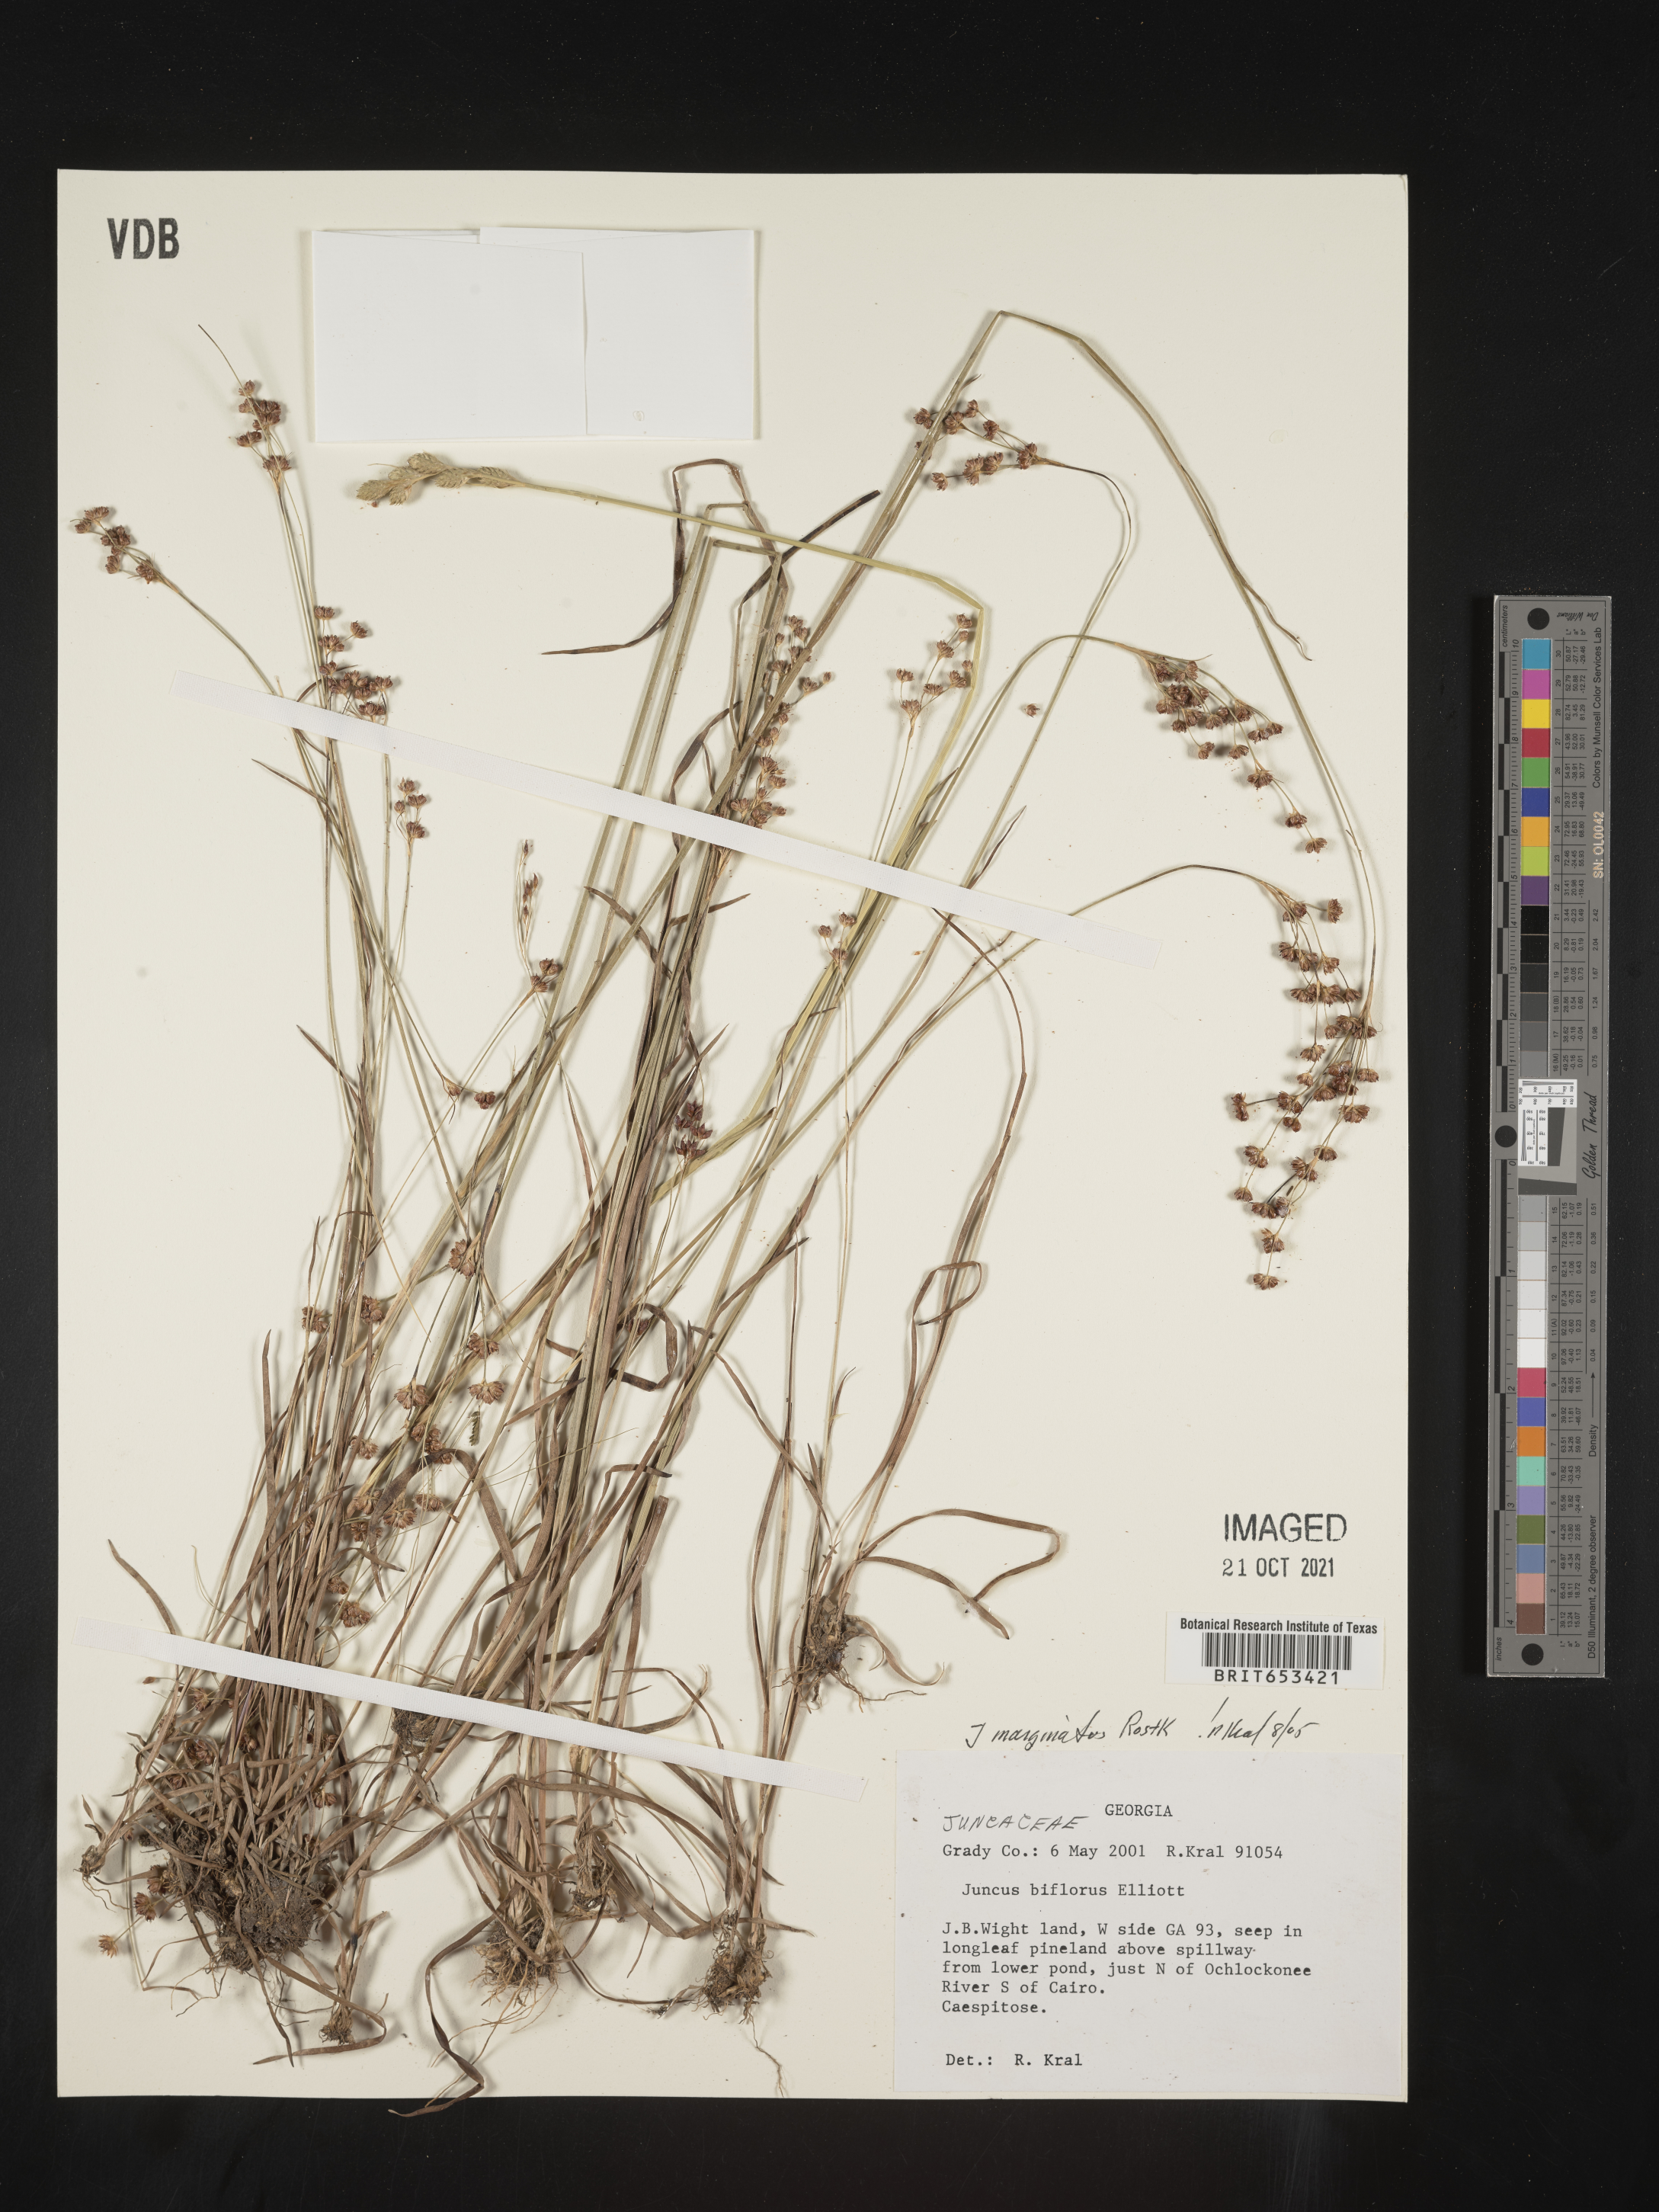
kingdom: Plantae
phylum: Tracheophyta
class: Liliopsida
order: Poales
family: Juncaceae
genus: Juncus
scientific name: Juncus marginatus
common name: Grass-leaf rush
